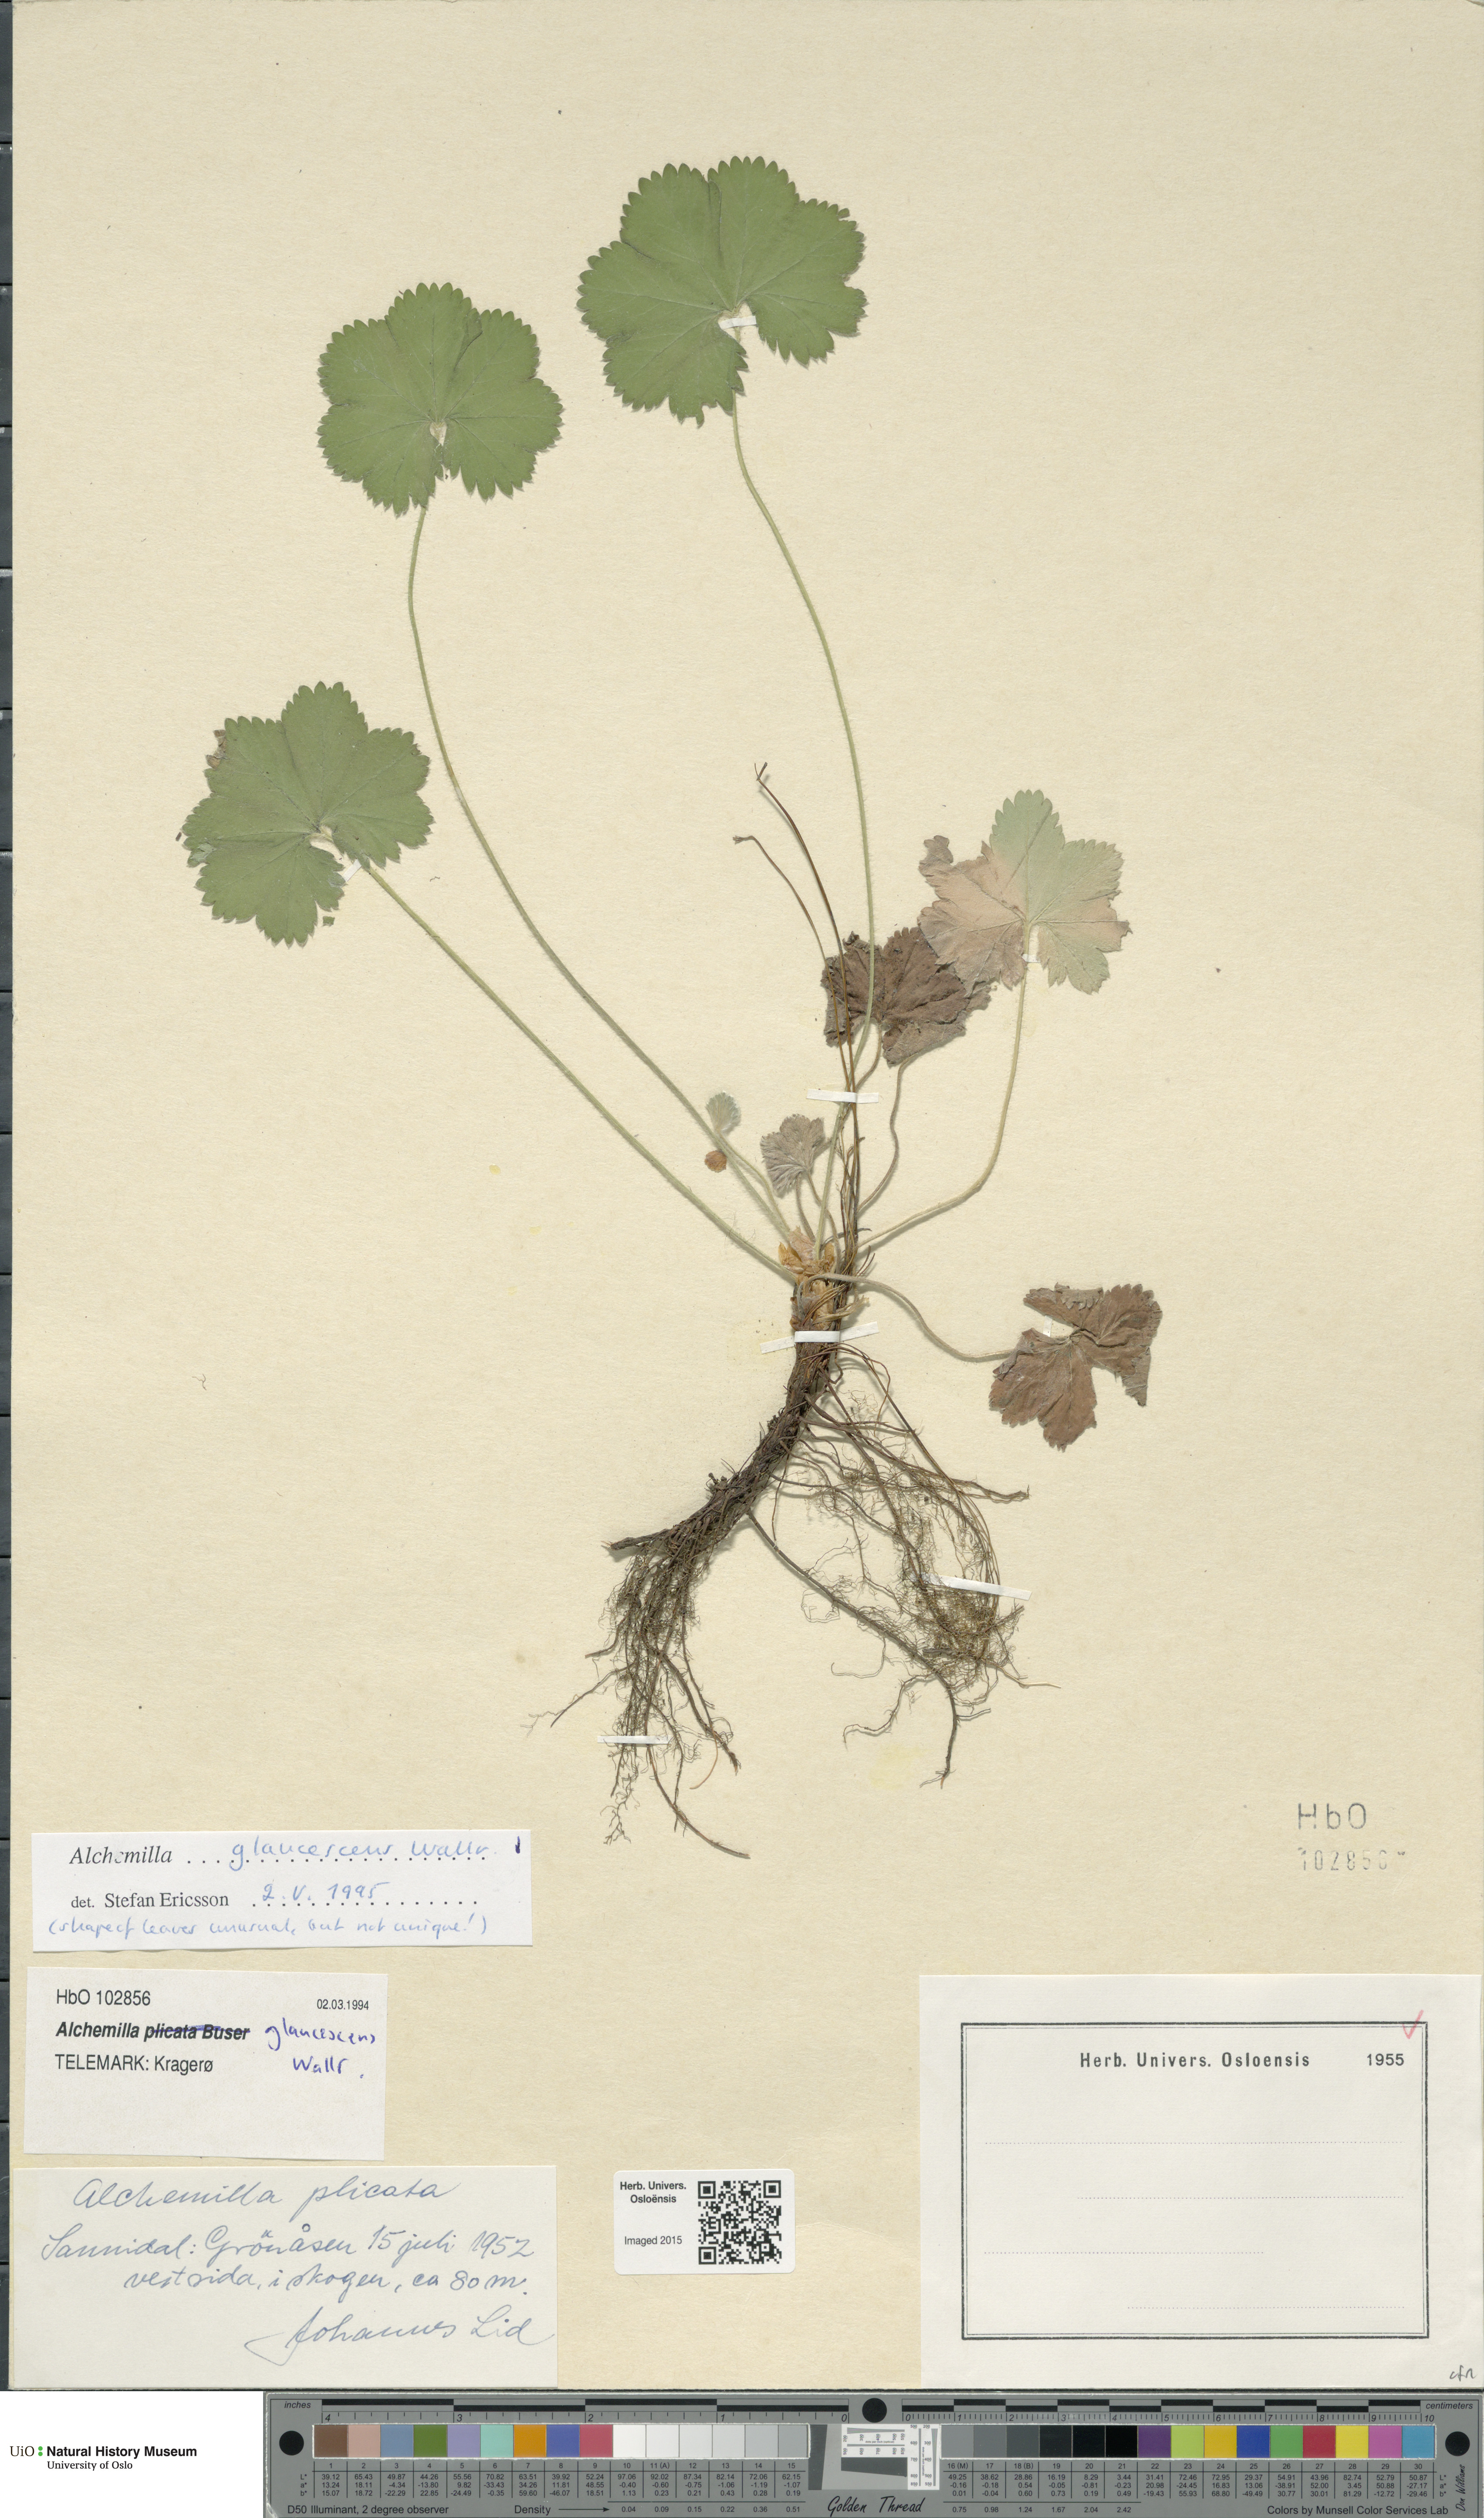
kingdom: Plantae
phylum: Tracheophyta
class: Magnoliopsida
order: Rosales
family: Rosaceae
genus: Alchemilla
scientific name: Alchemilla glaucescens
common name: Silky lady's mantle
